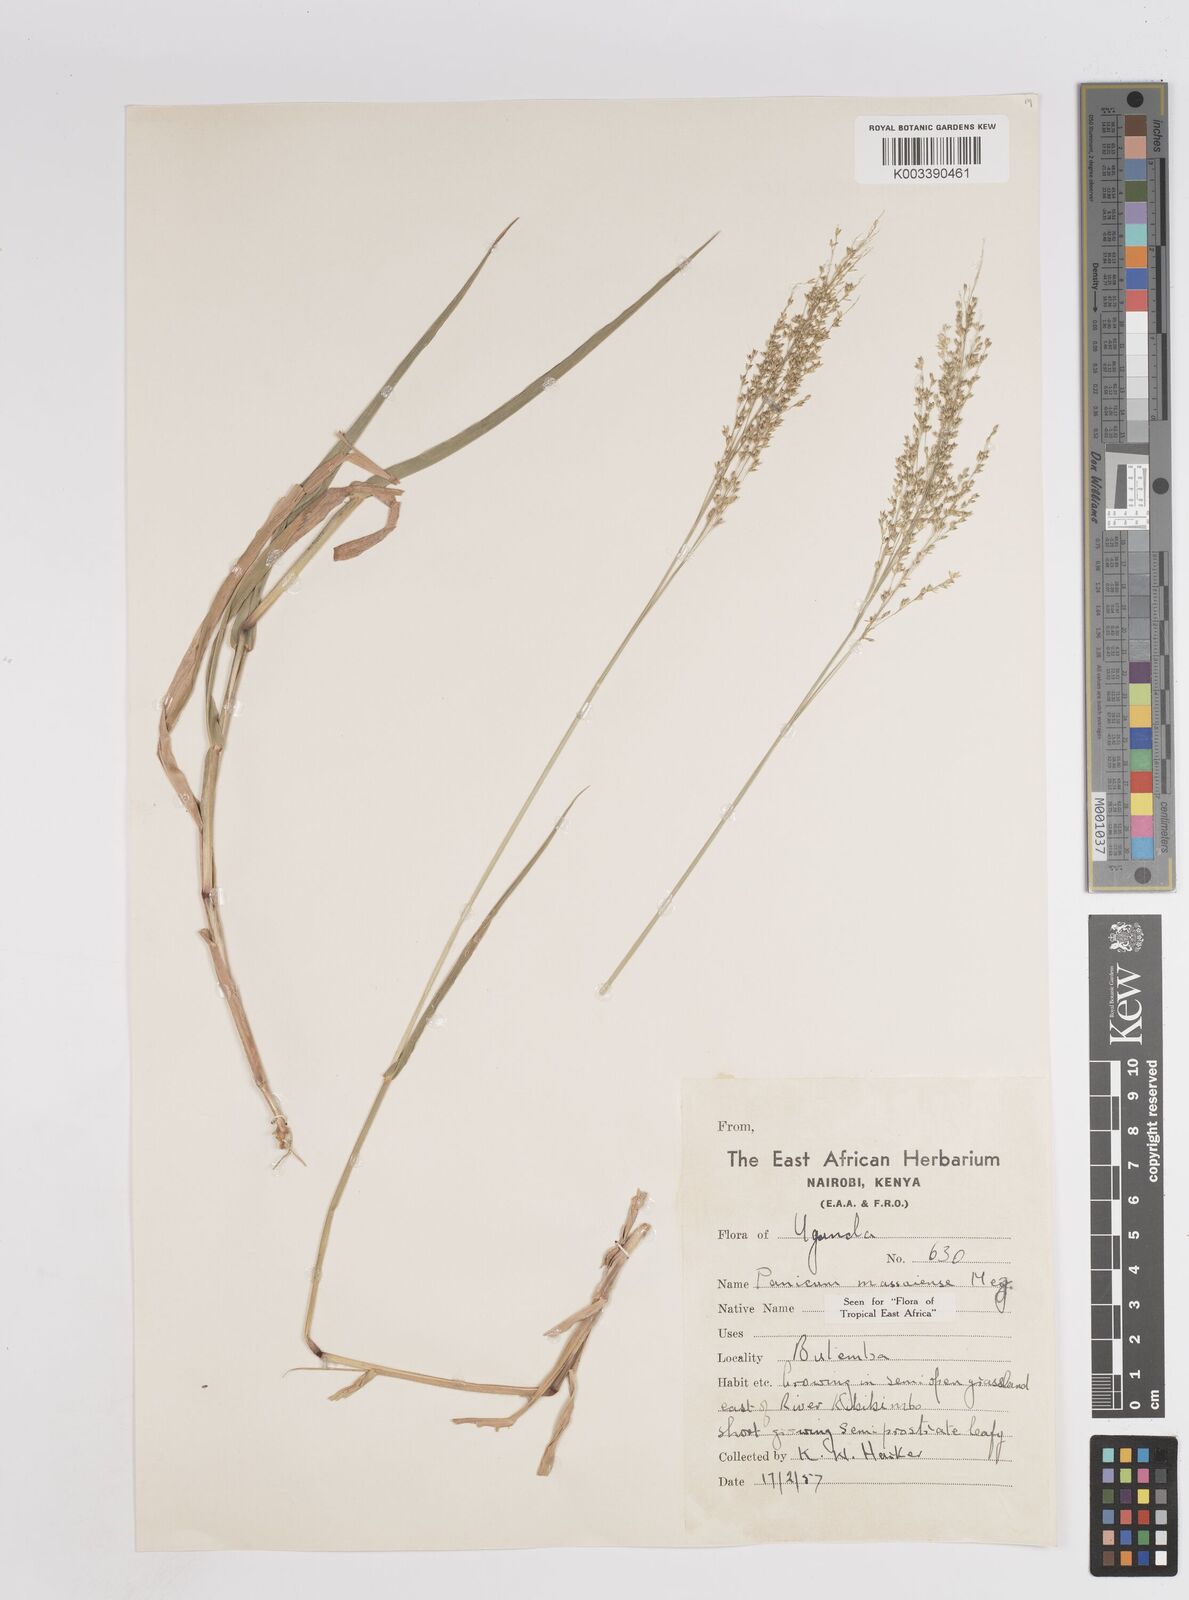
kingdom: Plantae
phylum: Tracheophyta
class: Liliopsida
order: Poales
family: Poaceae
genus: Panicum
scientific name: Panicum massaiense
